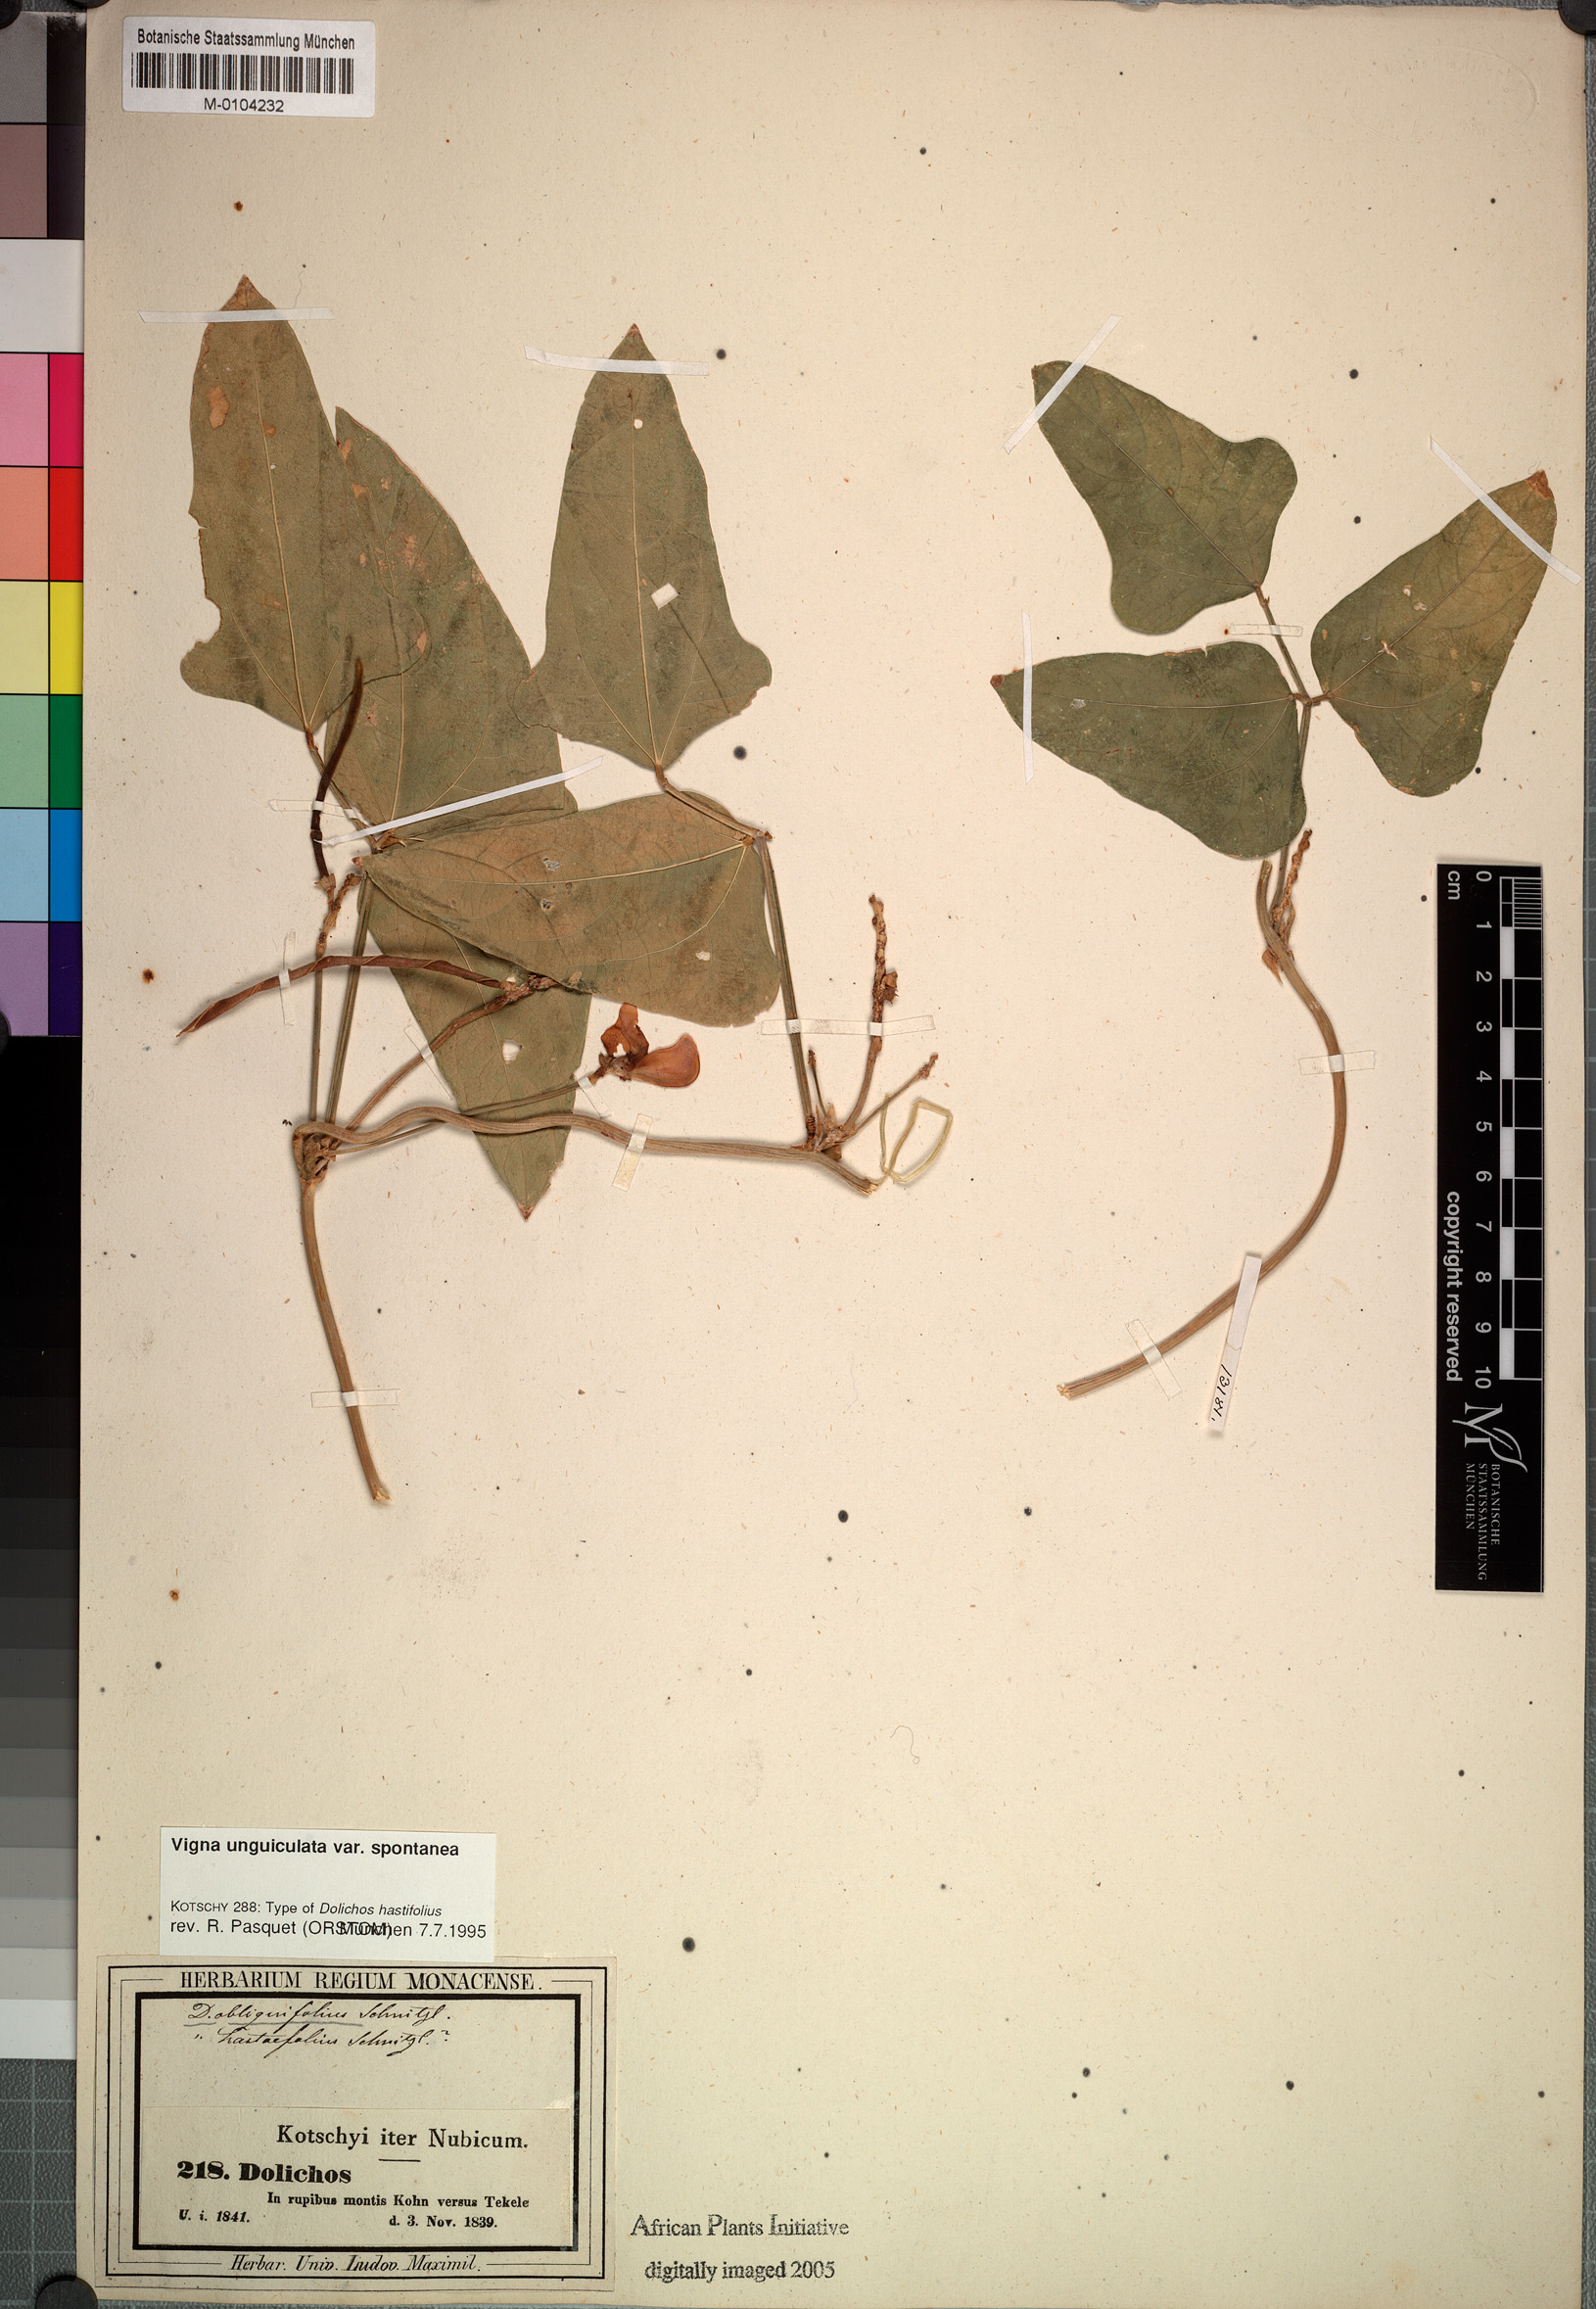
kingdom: Plantae
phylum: Tracheophyta
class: Magnoliopsida
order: Fabales
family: Fabaceae
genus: Vigna
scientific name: Vigna unguiculata
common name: Cowpea
